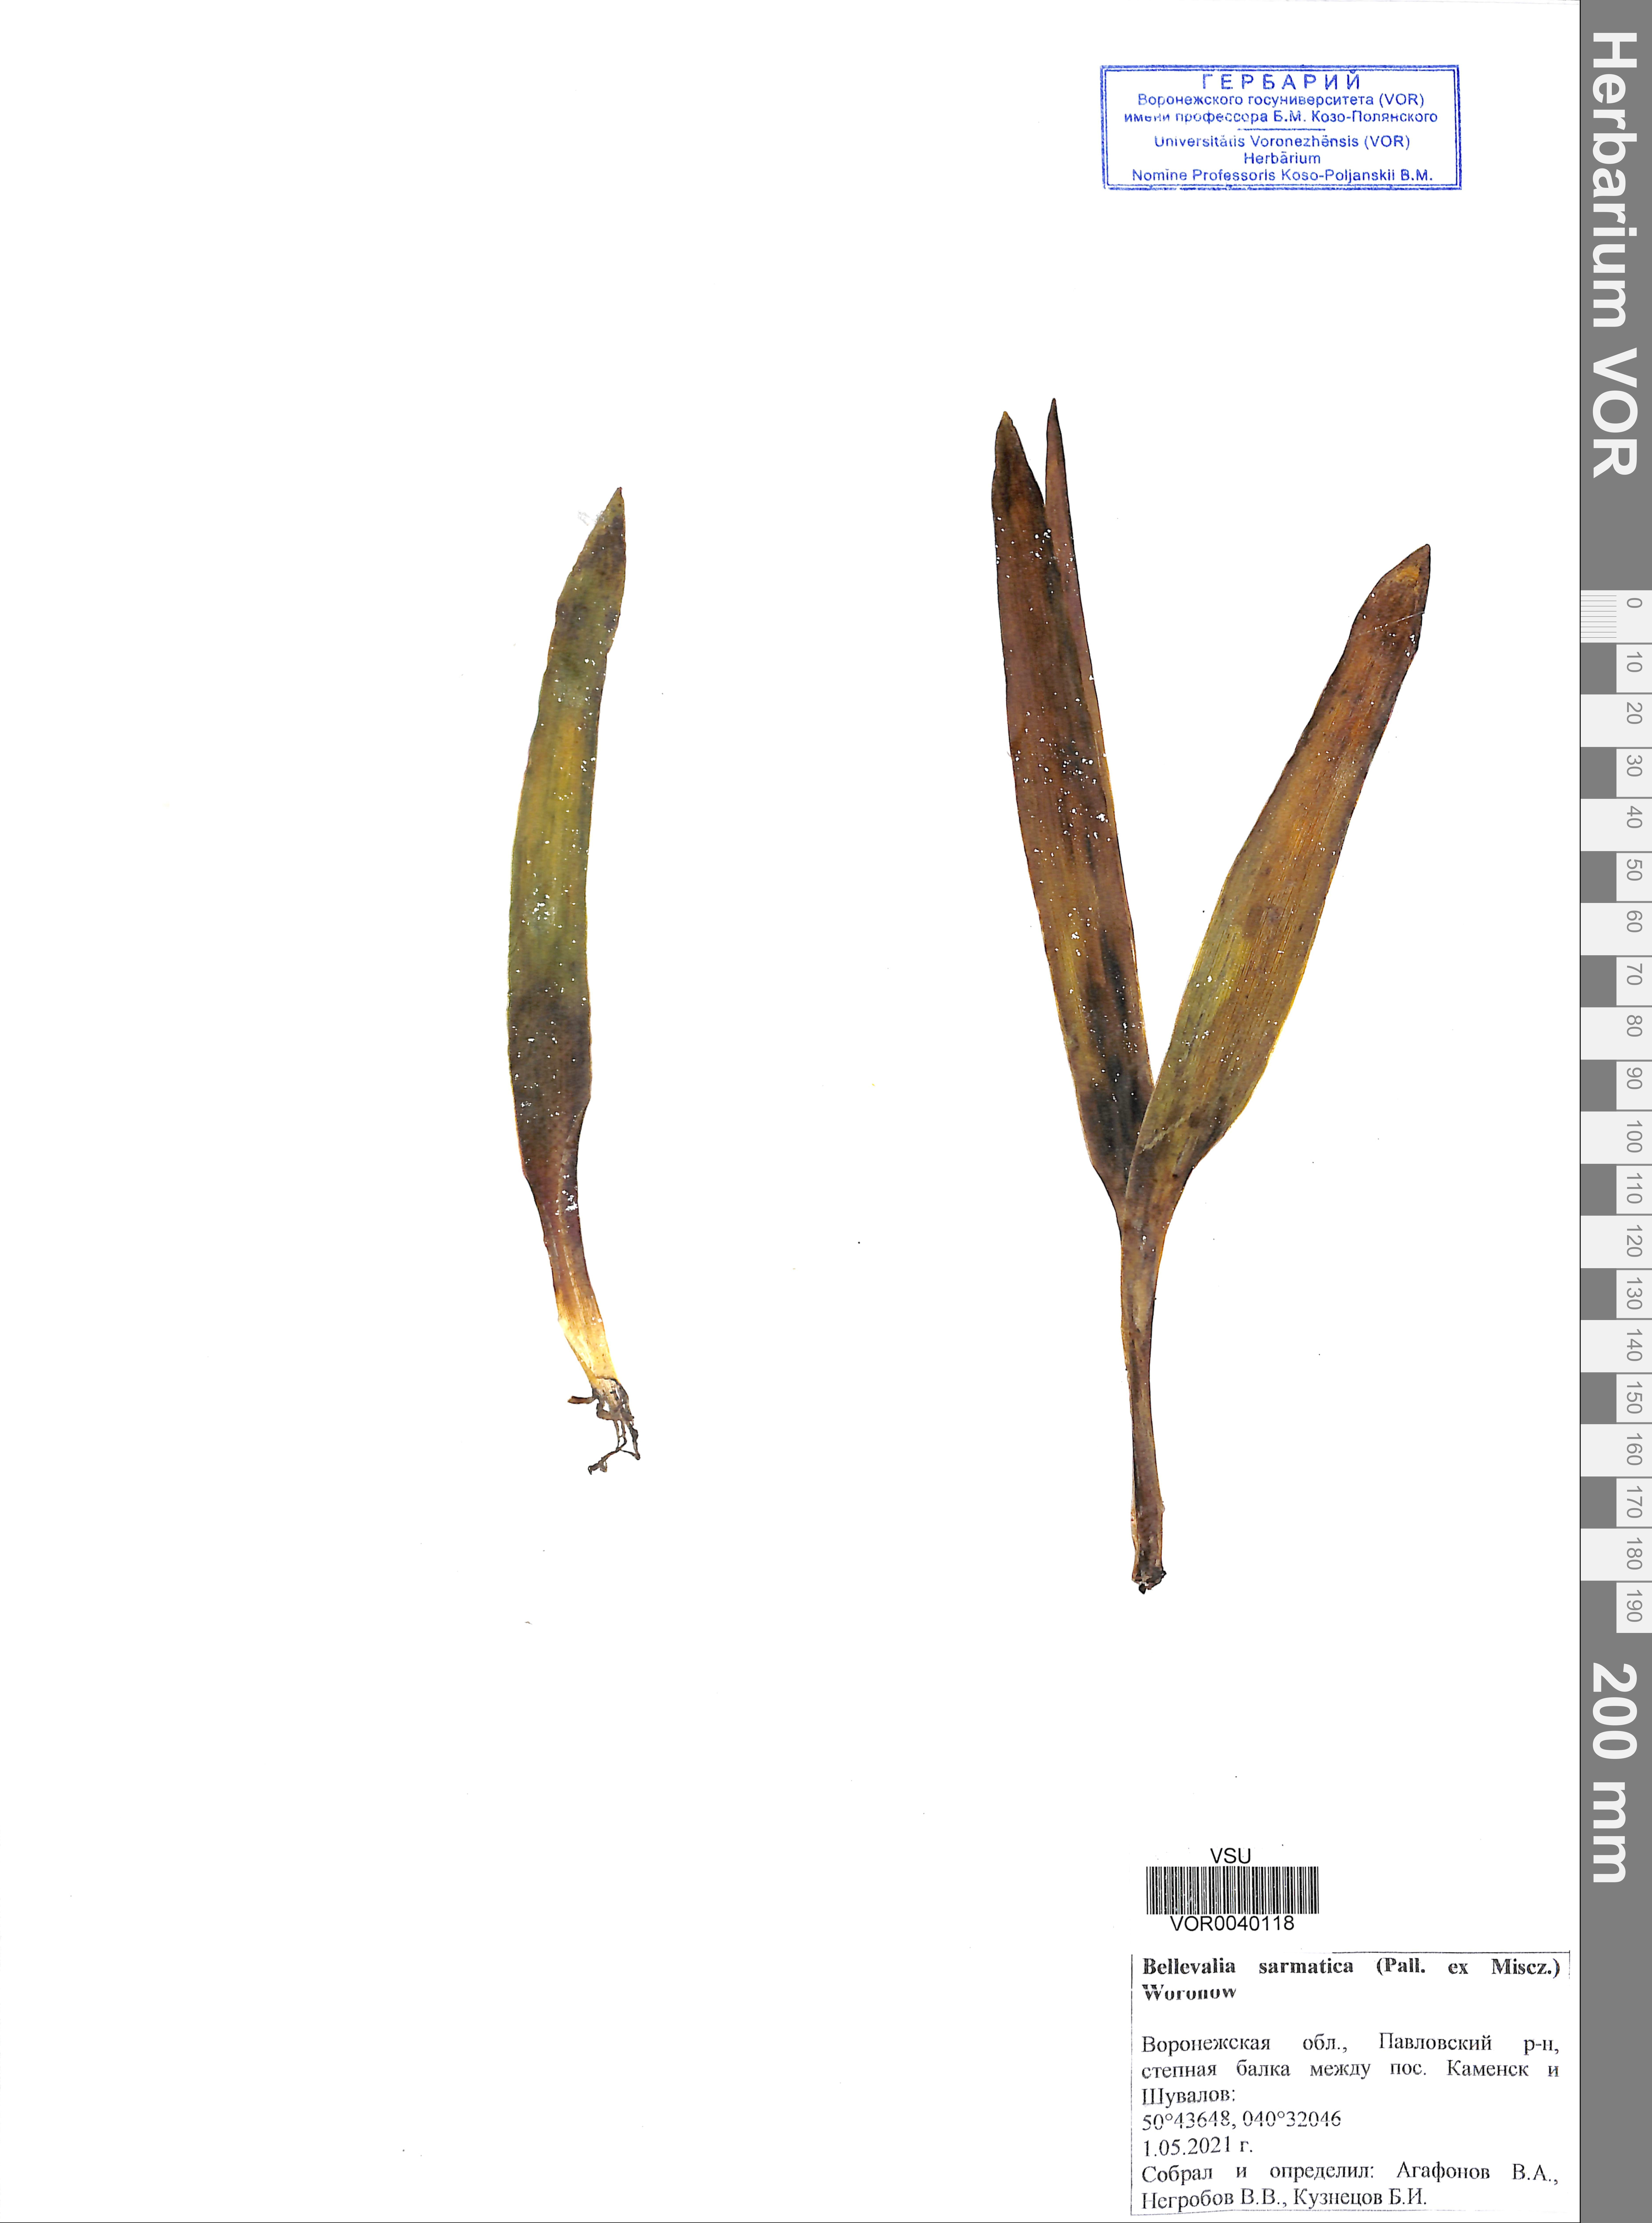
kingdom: Plantae
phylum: Tracheophyta
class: Liliopsida
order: Asparagales
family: Asparagaceae
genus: Bellevalia
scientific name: Bellevalia speciosa
